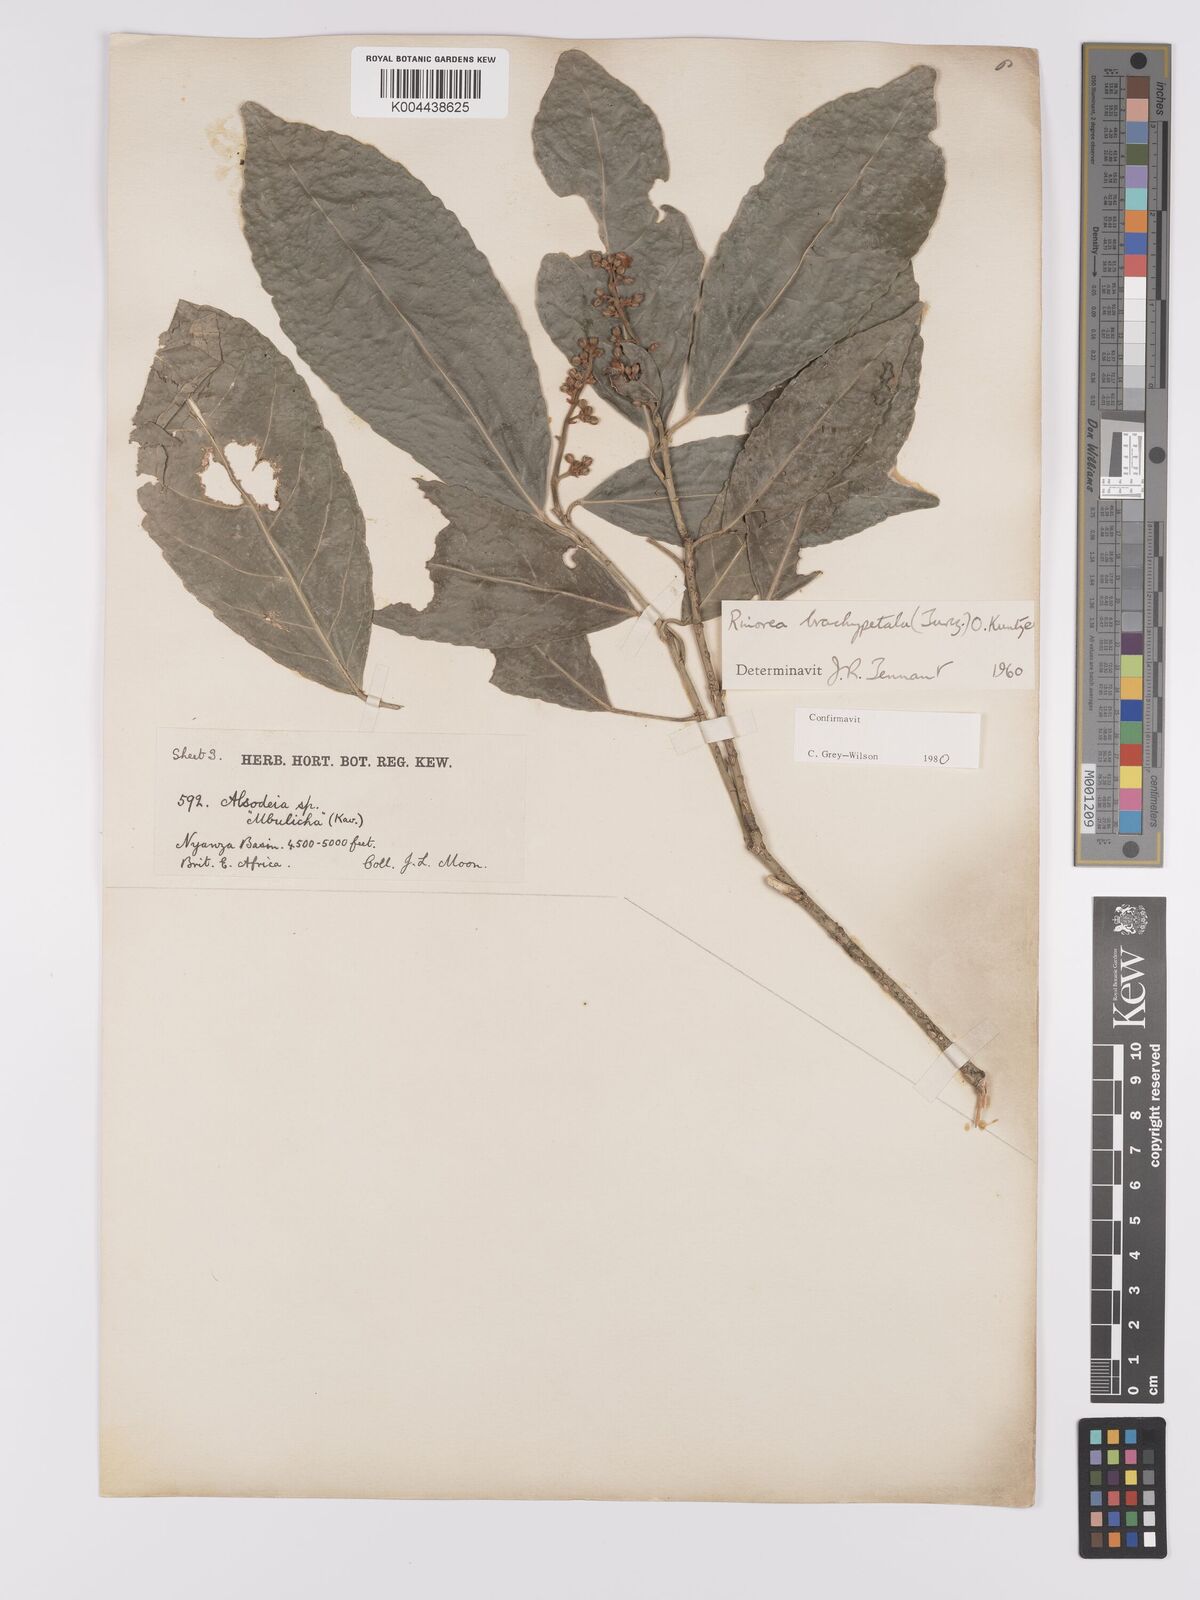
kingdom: Plantae
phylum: Tracheophyta
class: Magnoliopsida
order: Malpighiales
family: Violaceae
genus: Rinorea
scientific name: Rinorea brachypetala
